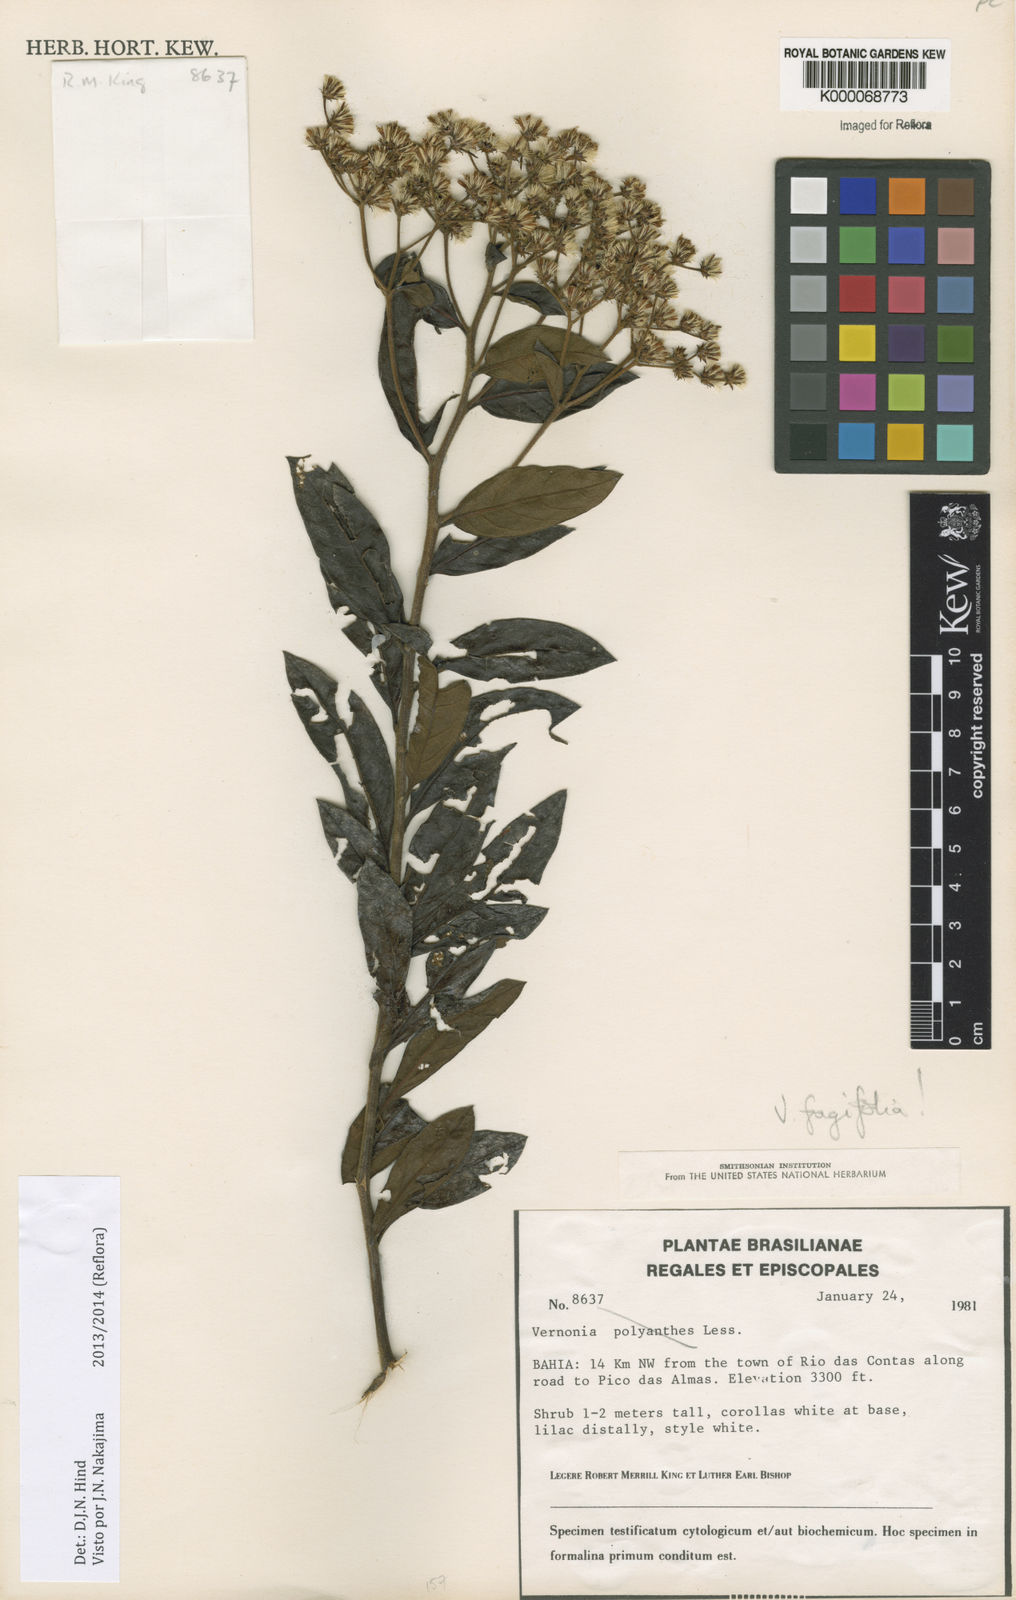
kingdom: Plantae
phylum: Tracheophyta
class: Magnoliopsida
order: Asterales
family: Asteraceae
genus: Vernonanthura
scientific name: Vernonanthura fagifolia
